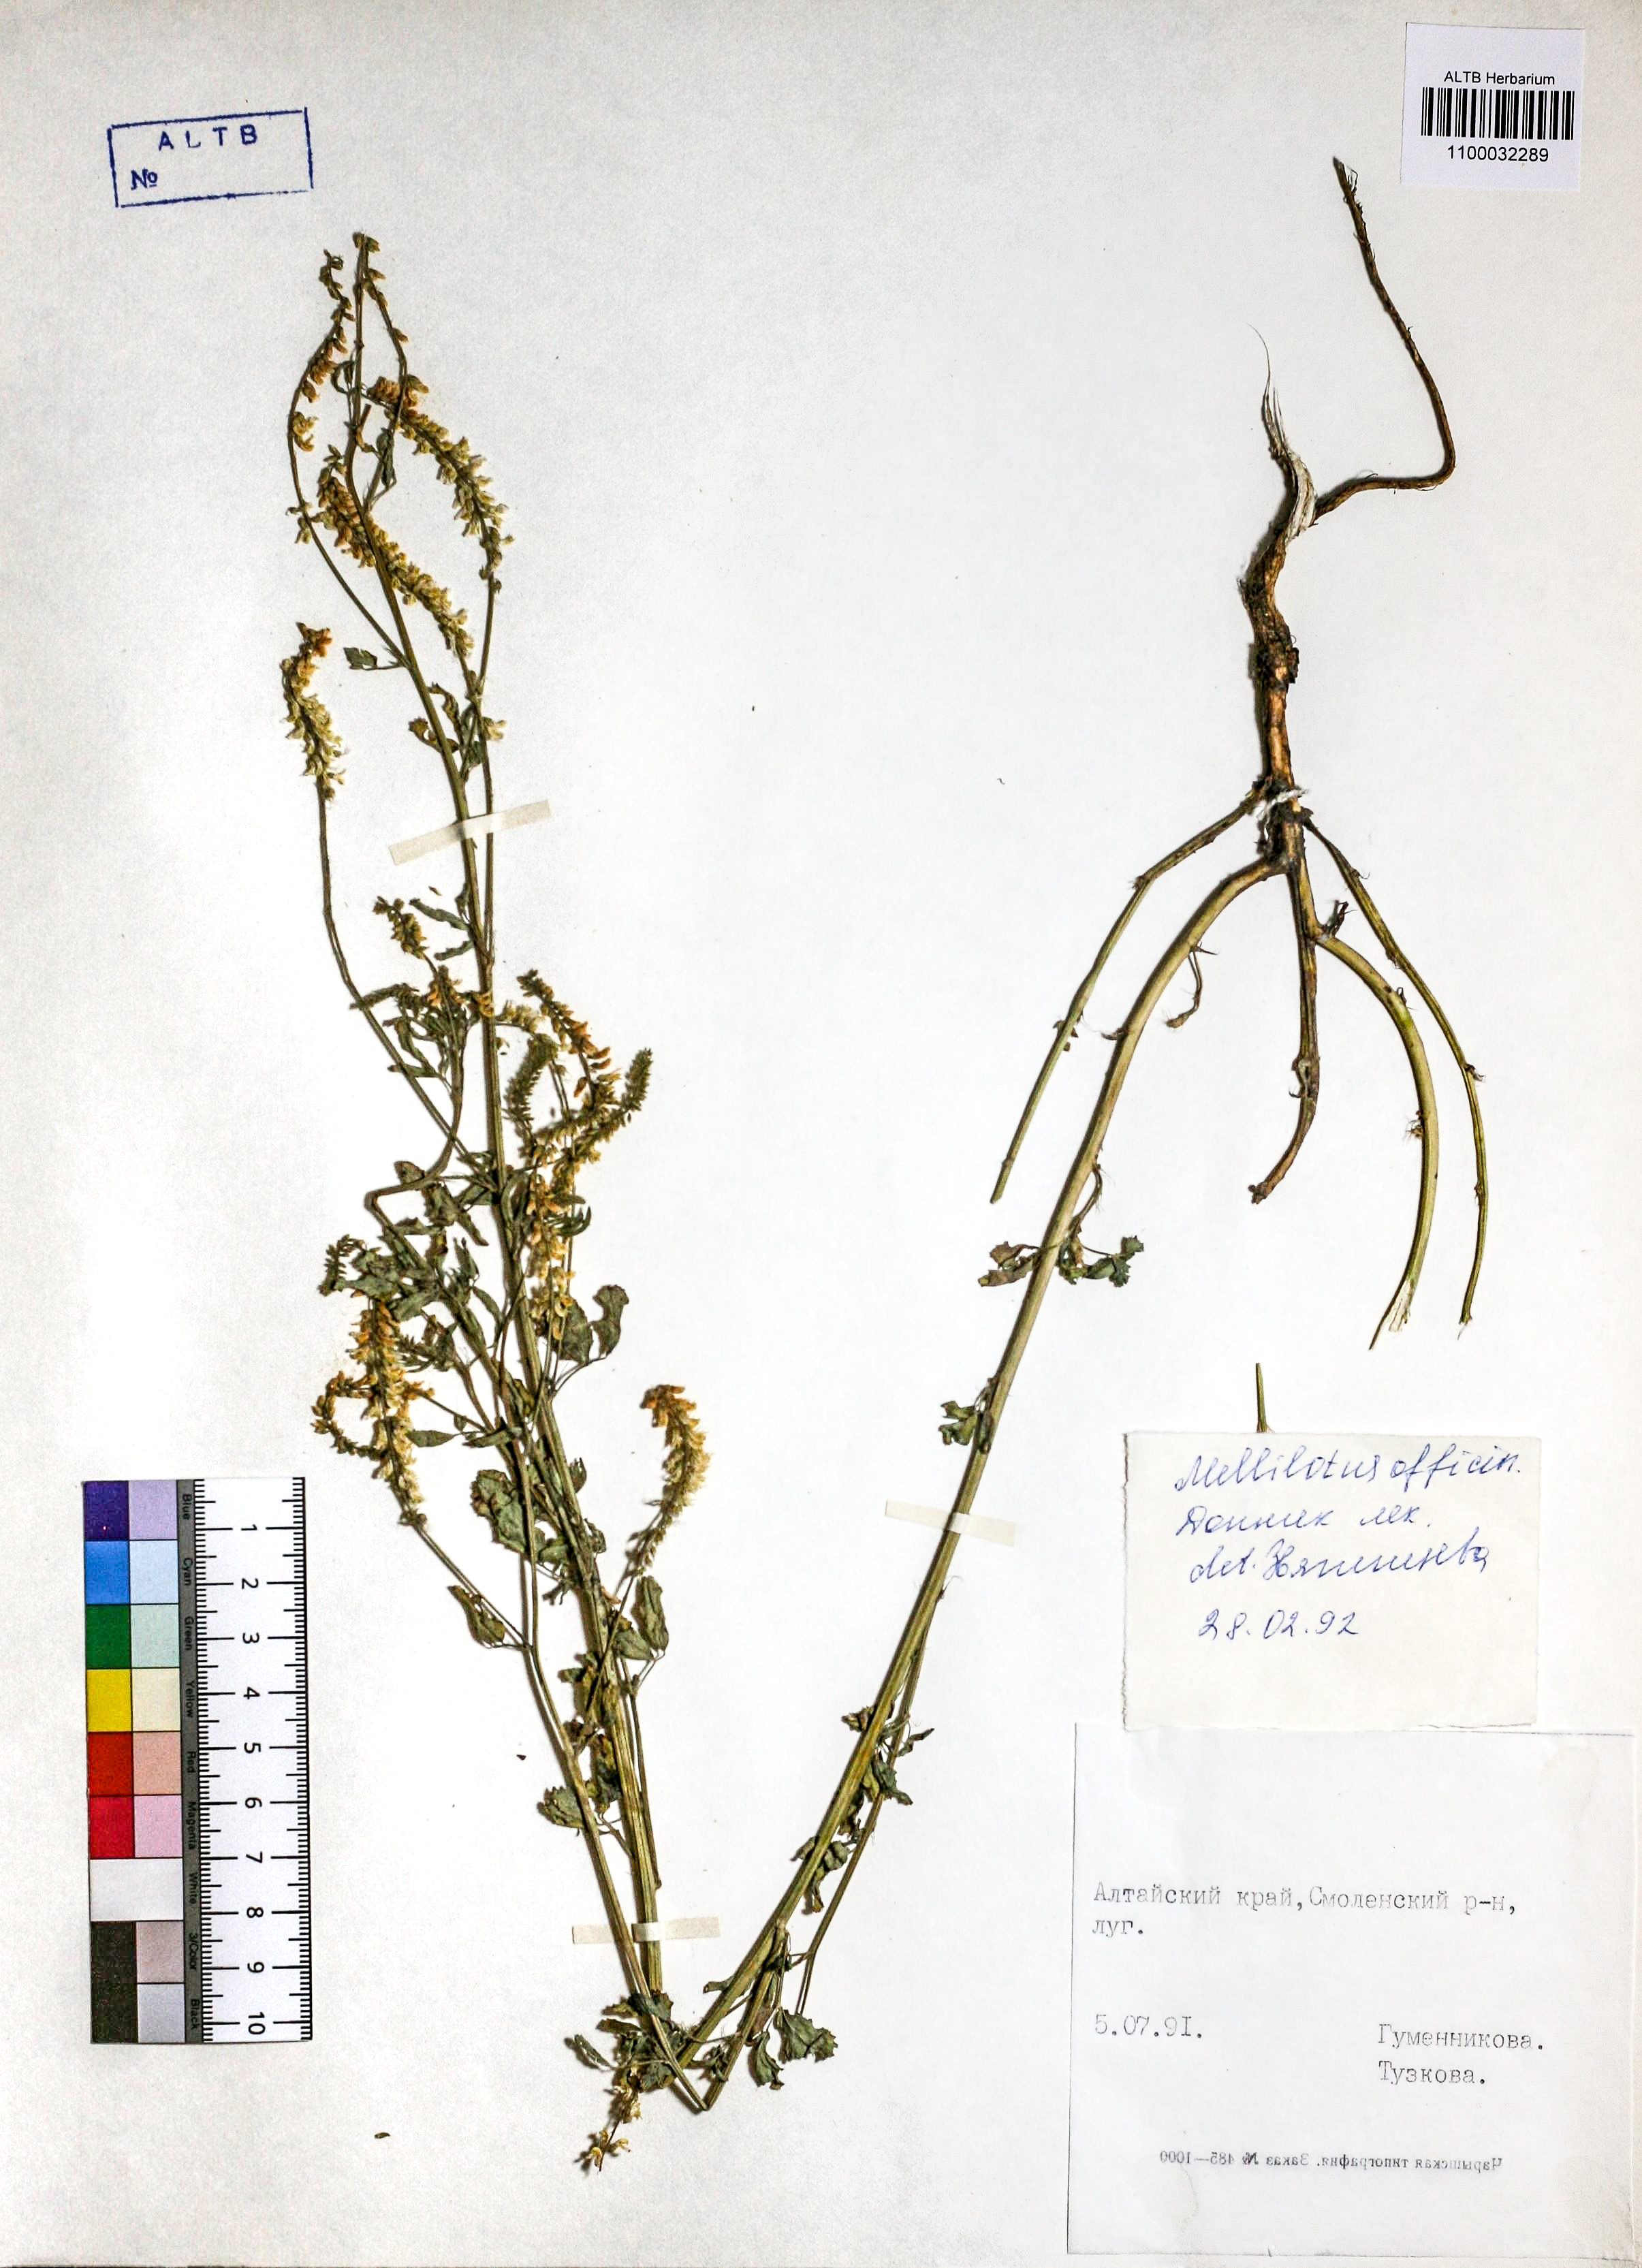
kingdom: Plantae
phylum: Tracheophyta
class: Magnoliopsida
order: Fabales
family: Fabaceae
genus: Melilotus
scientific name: Melilotus officinalis
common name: Sweetclover
